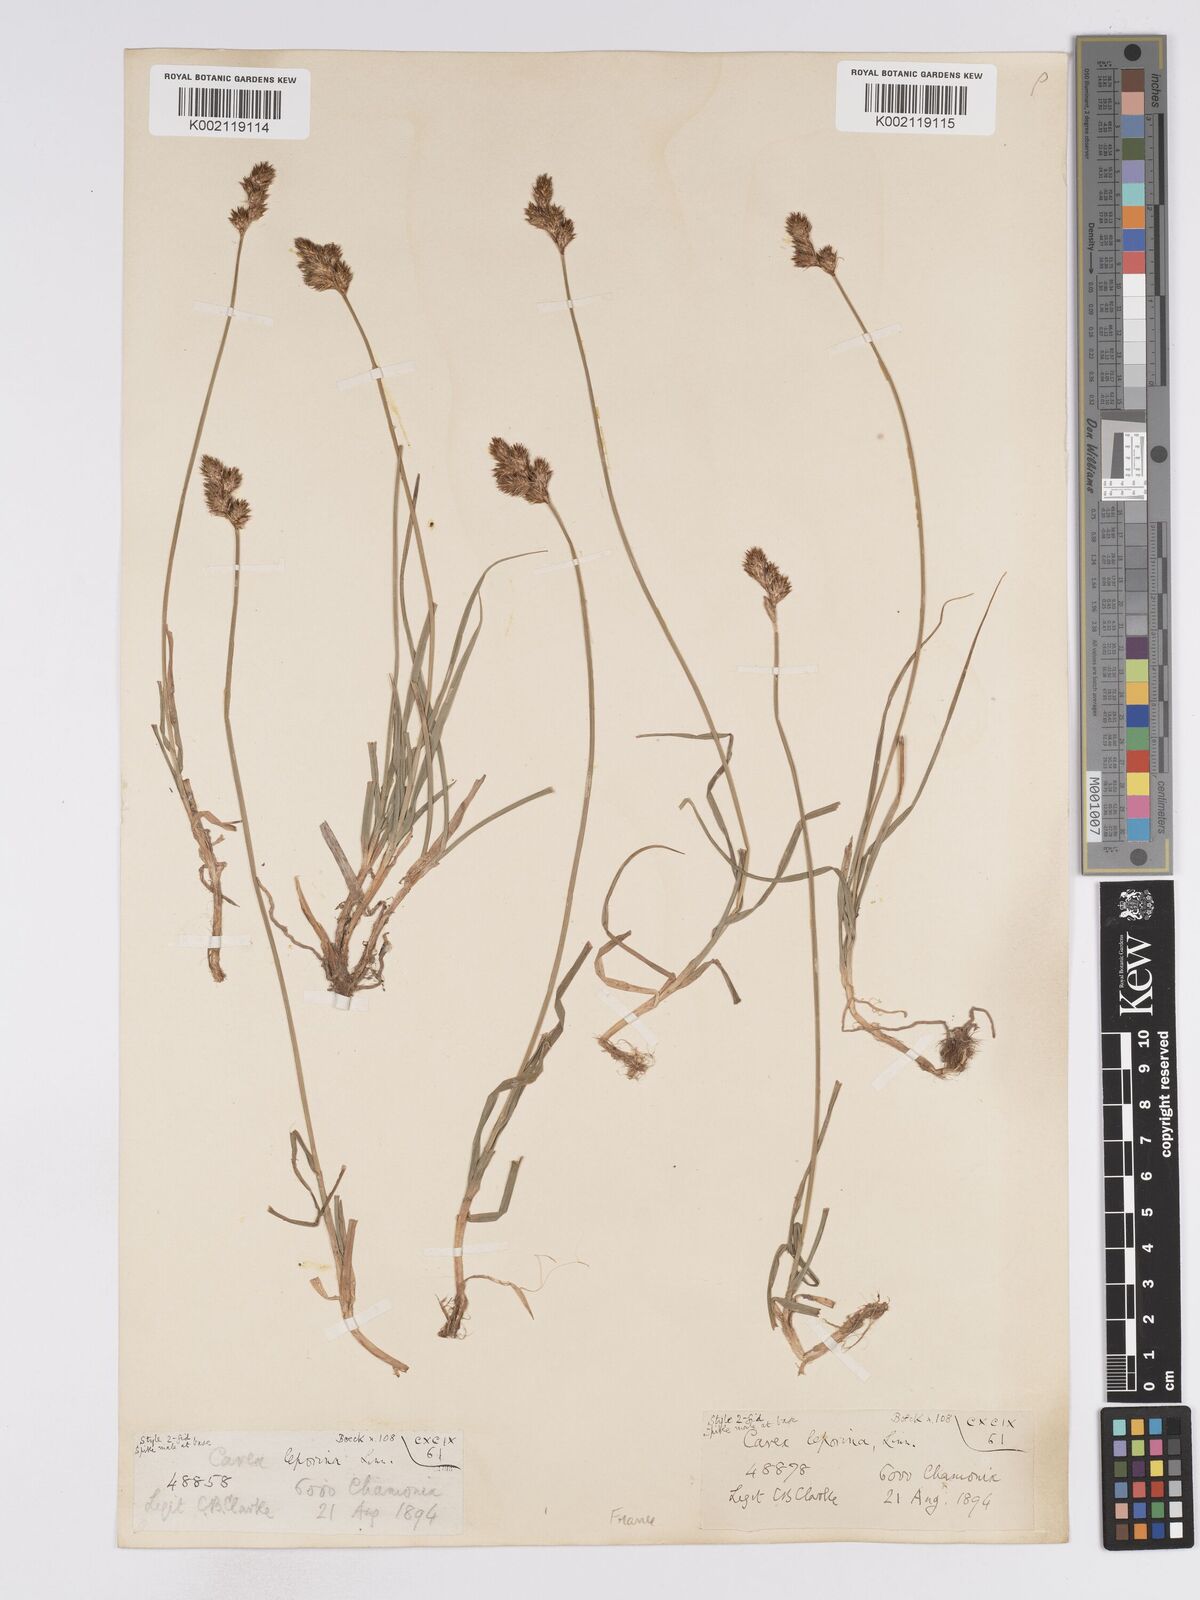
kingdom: Plantae
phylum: Tracheophyta
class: Liliopsida
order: Poales
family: Cyperaceae
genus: Carex
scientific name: Carex leporina
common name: Oval sedge
